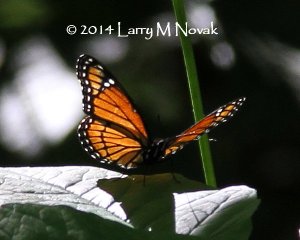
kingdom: Animalia
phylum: Arthropoda
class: Insecta
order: Lepidoptera
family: Nymphalidae
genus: Limenitis
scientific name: Limenitis archippus
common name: Viceroy
